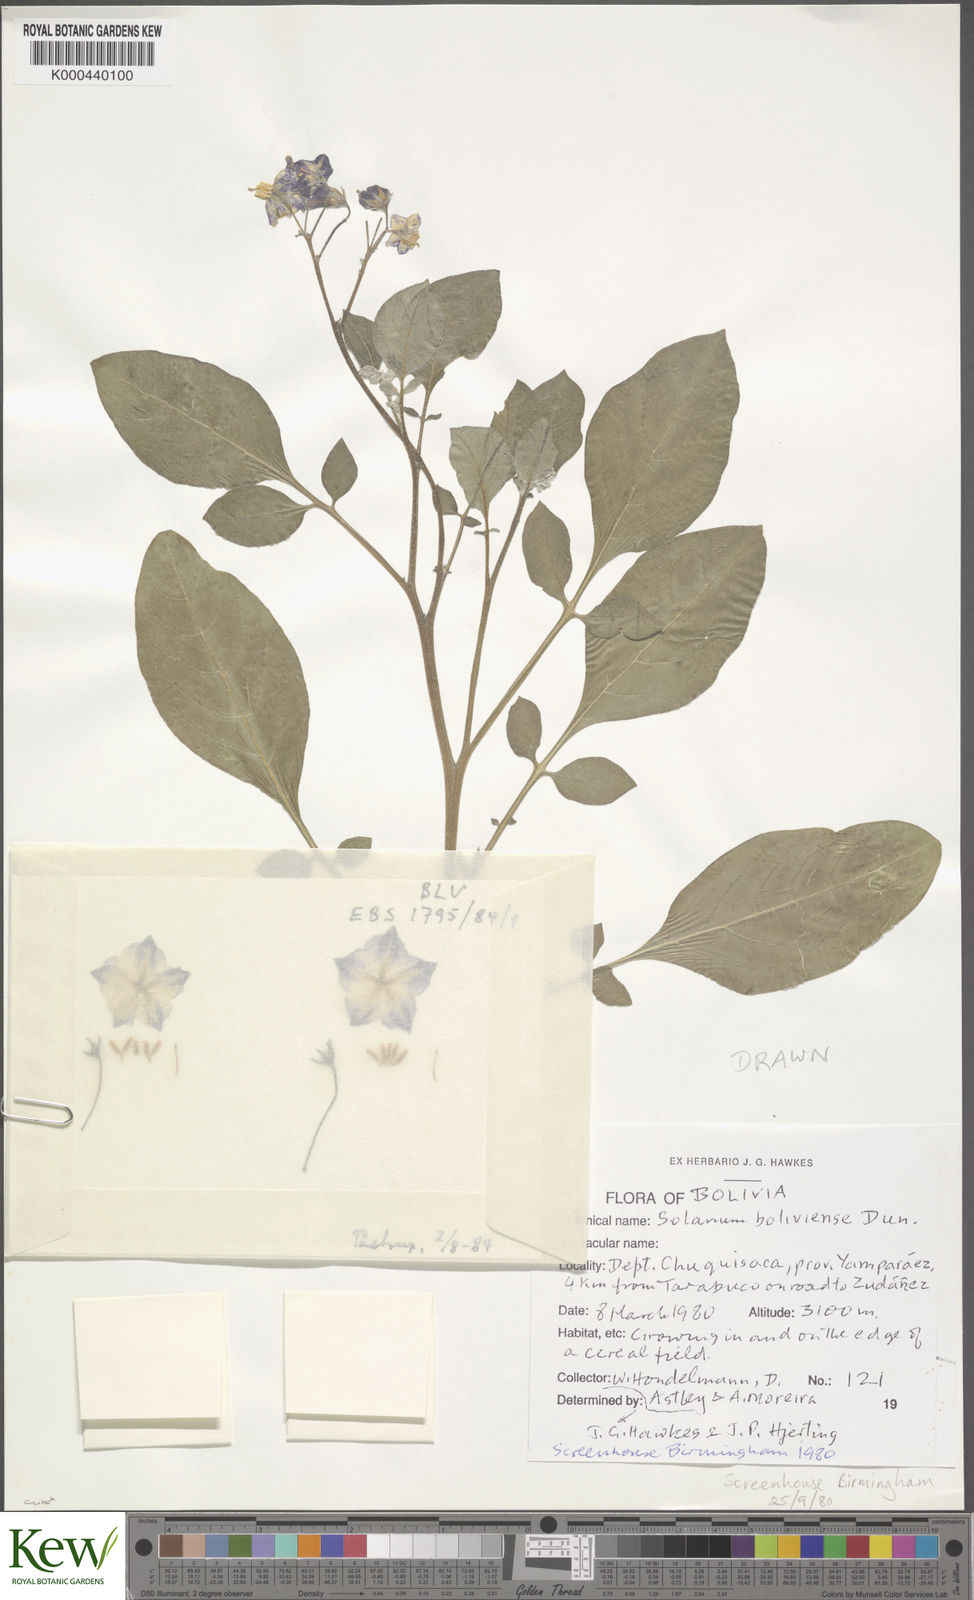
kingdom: Plantae
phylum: Tracheophyta
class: Magnoliopsida
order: Solanales
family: Solanaceae
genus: Solanum
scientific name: Solanum boliviense
